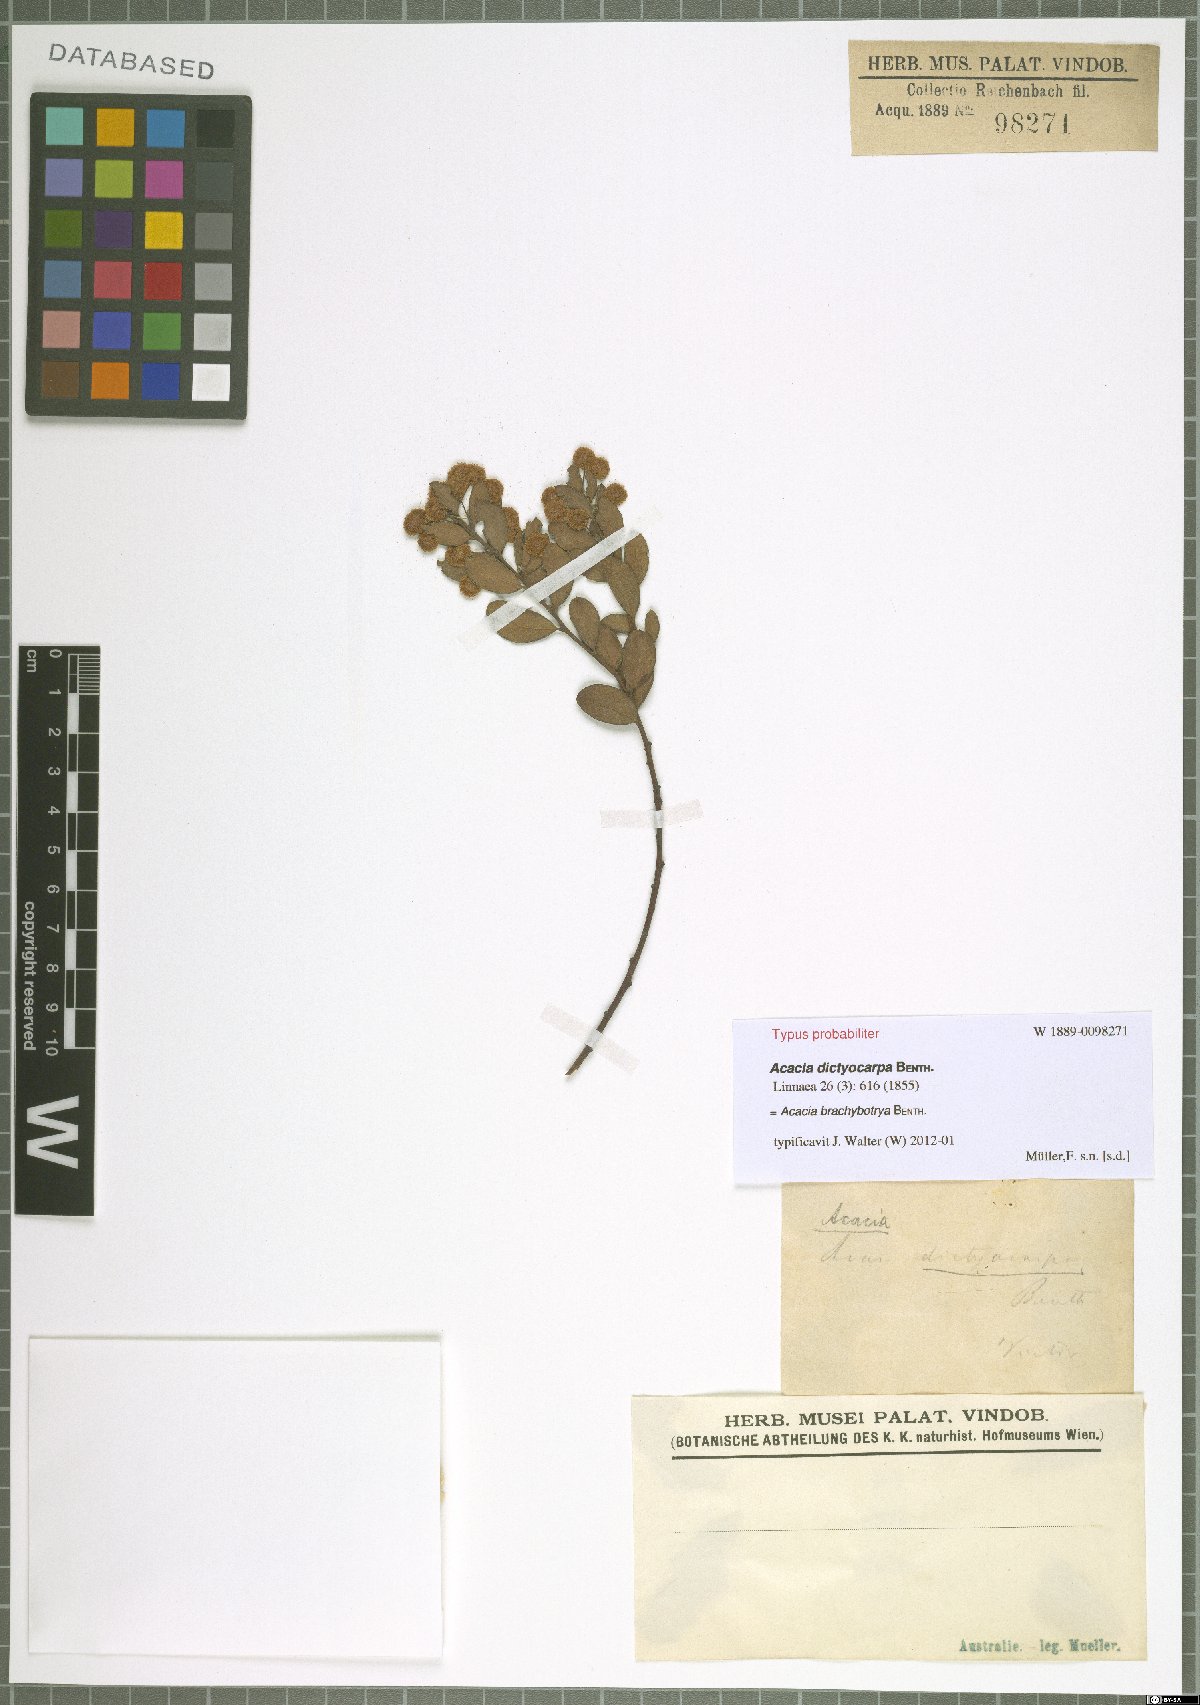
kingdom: Plantae
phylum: Tracheophyta
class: Magnoliopsida
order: Fabales
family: Fabaceae
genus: Acacia
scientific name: Acacia brachybotrya
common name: Grey mulga
